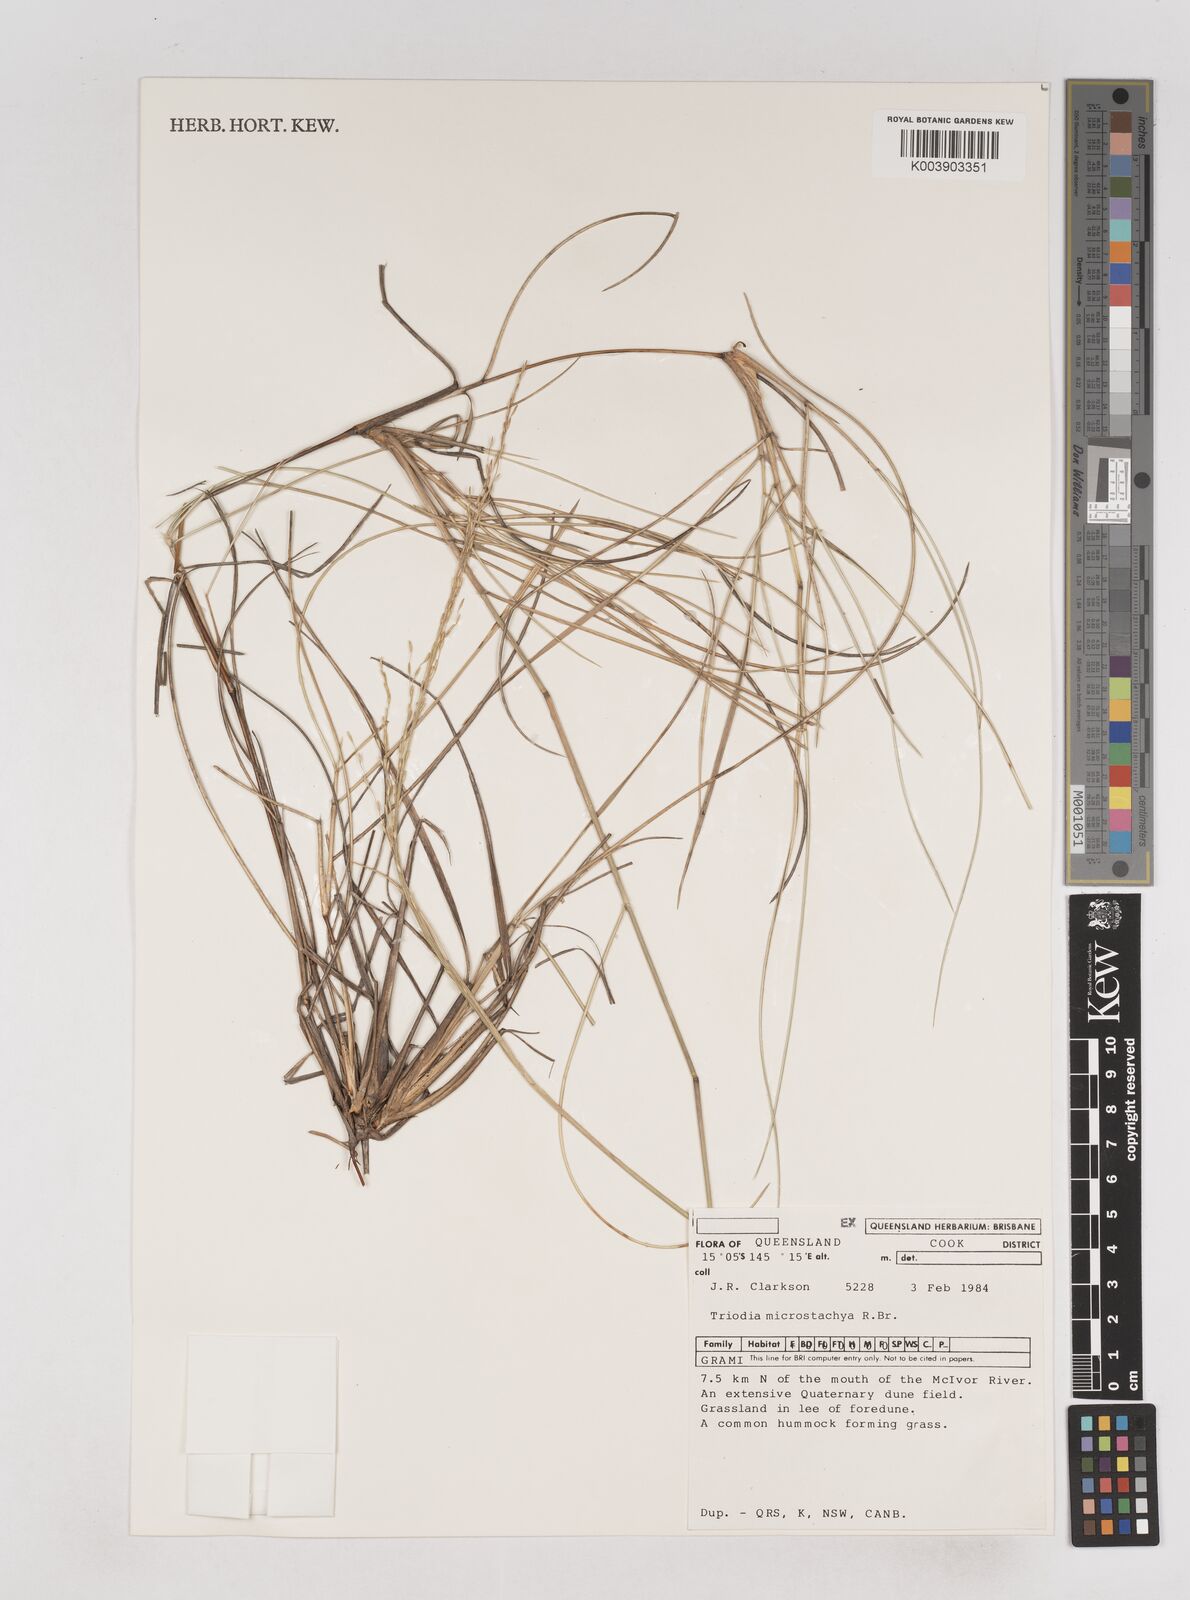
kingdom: Plantae
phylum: Tracheophyta
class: Liliopsida
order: Poales
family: Poaceae
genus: Triodia
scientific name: Triodia microstachya
